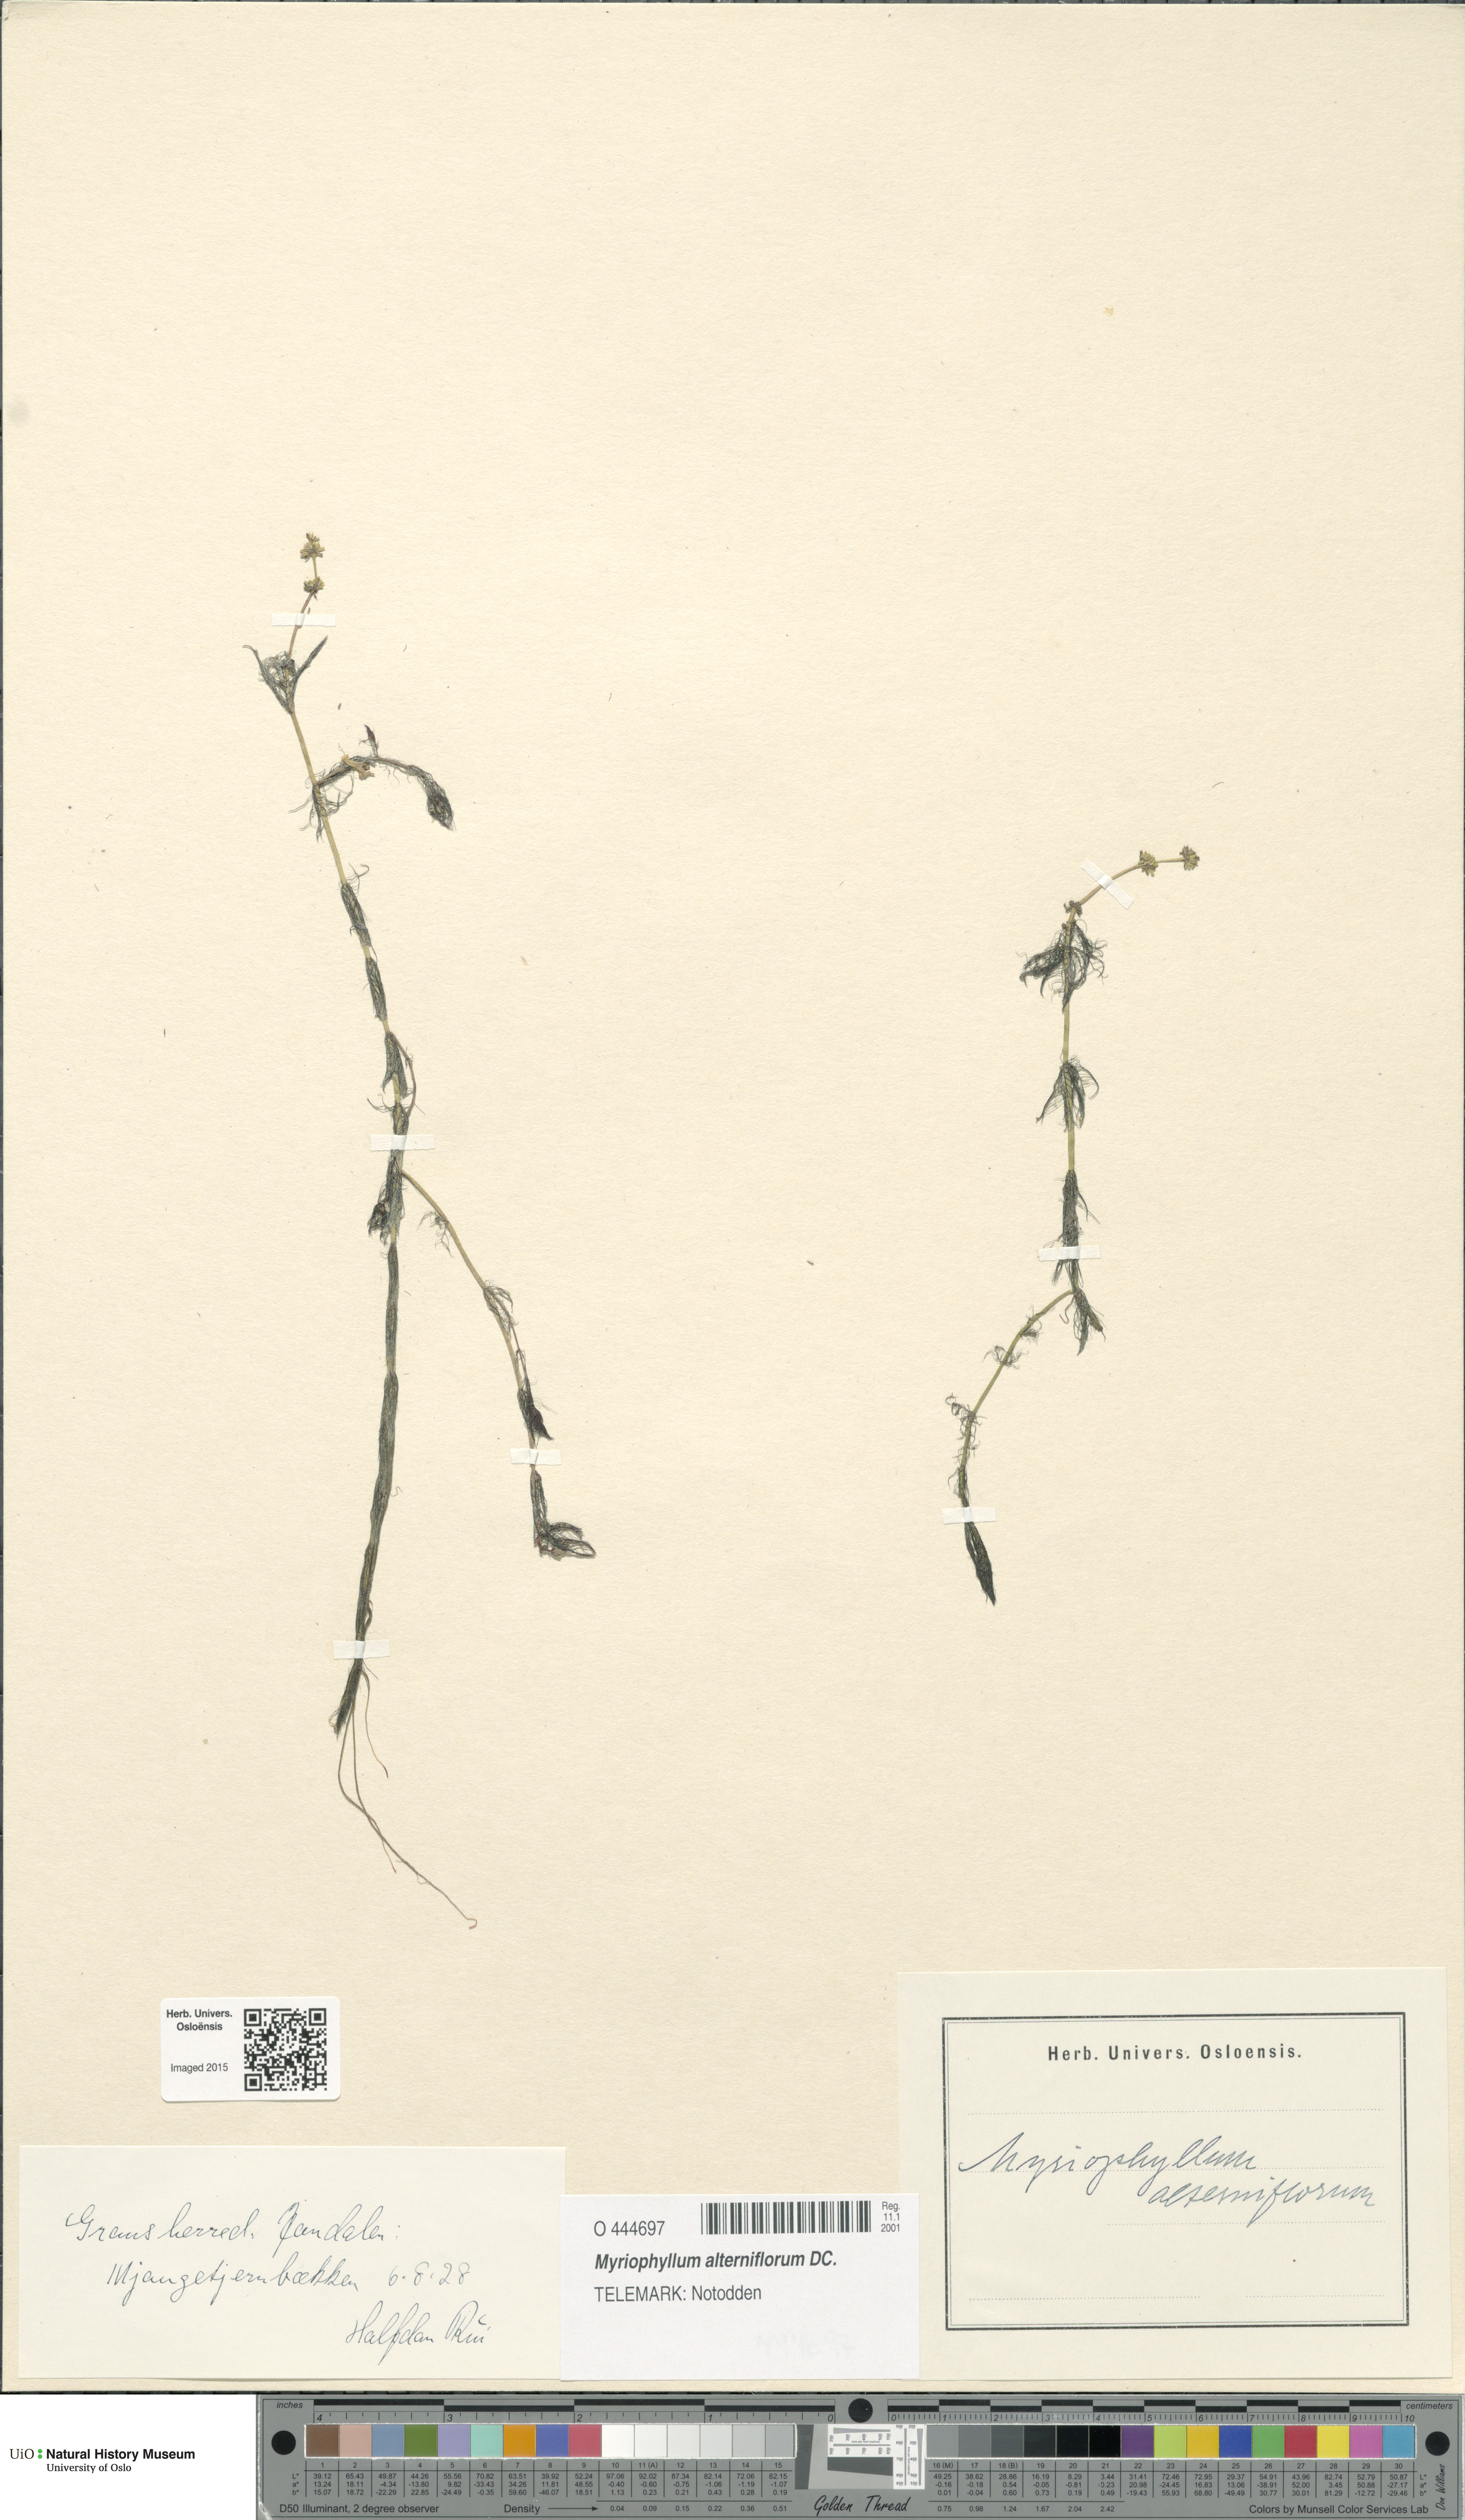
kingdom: Plantae
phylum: Tracheophyta
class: Magnoliopsida
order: Saxifragales
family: Haloragaceae
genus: Myriophyllum
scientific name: Myriophyllum alterniflorum
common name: Alternate water-milfoil
